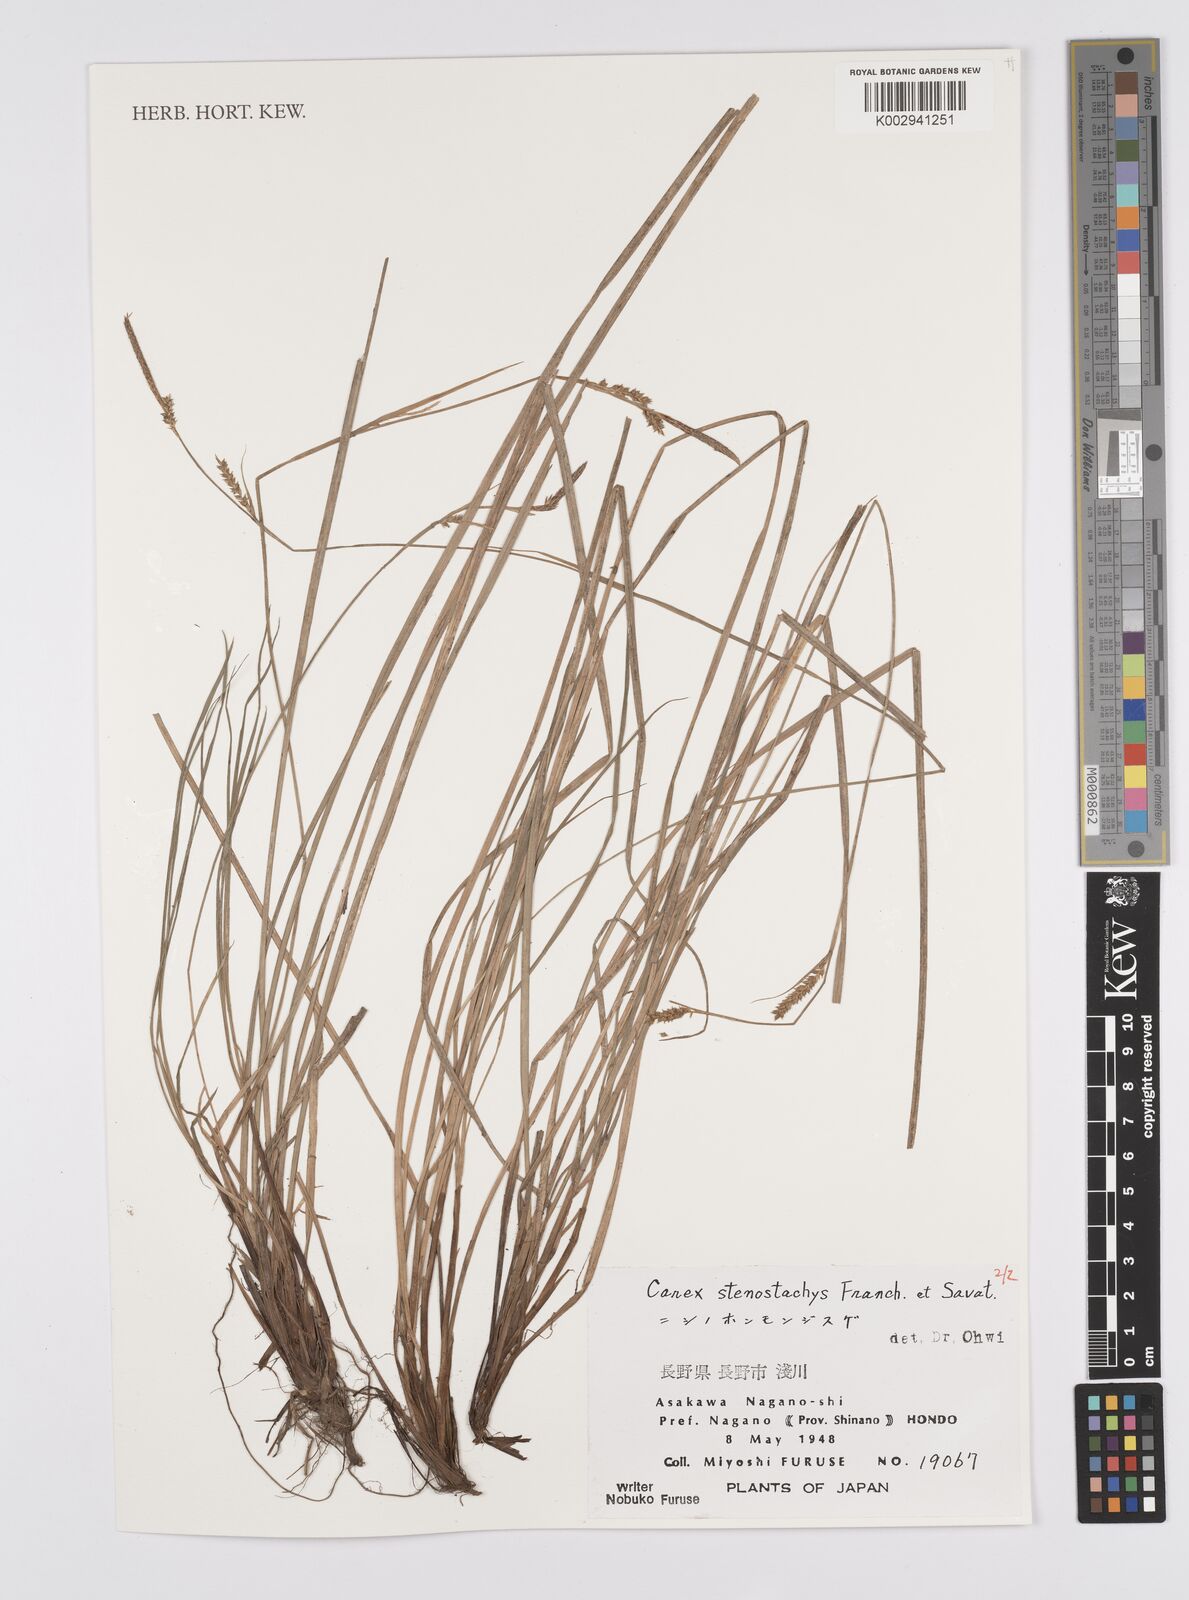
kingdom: Plantae
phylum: Tracheophyta
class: Liliopsida
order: Poales
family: Cyperaceae
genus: Carex
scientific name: Carex pisiformis
